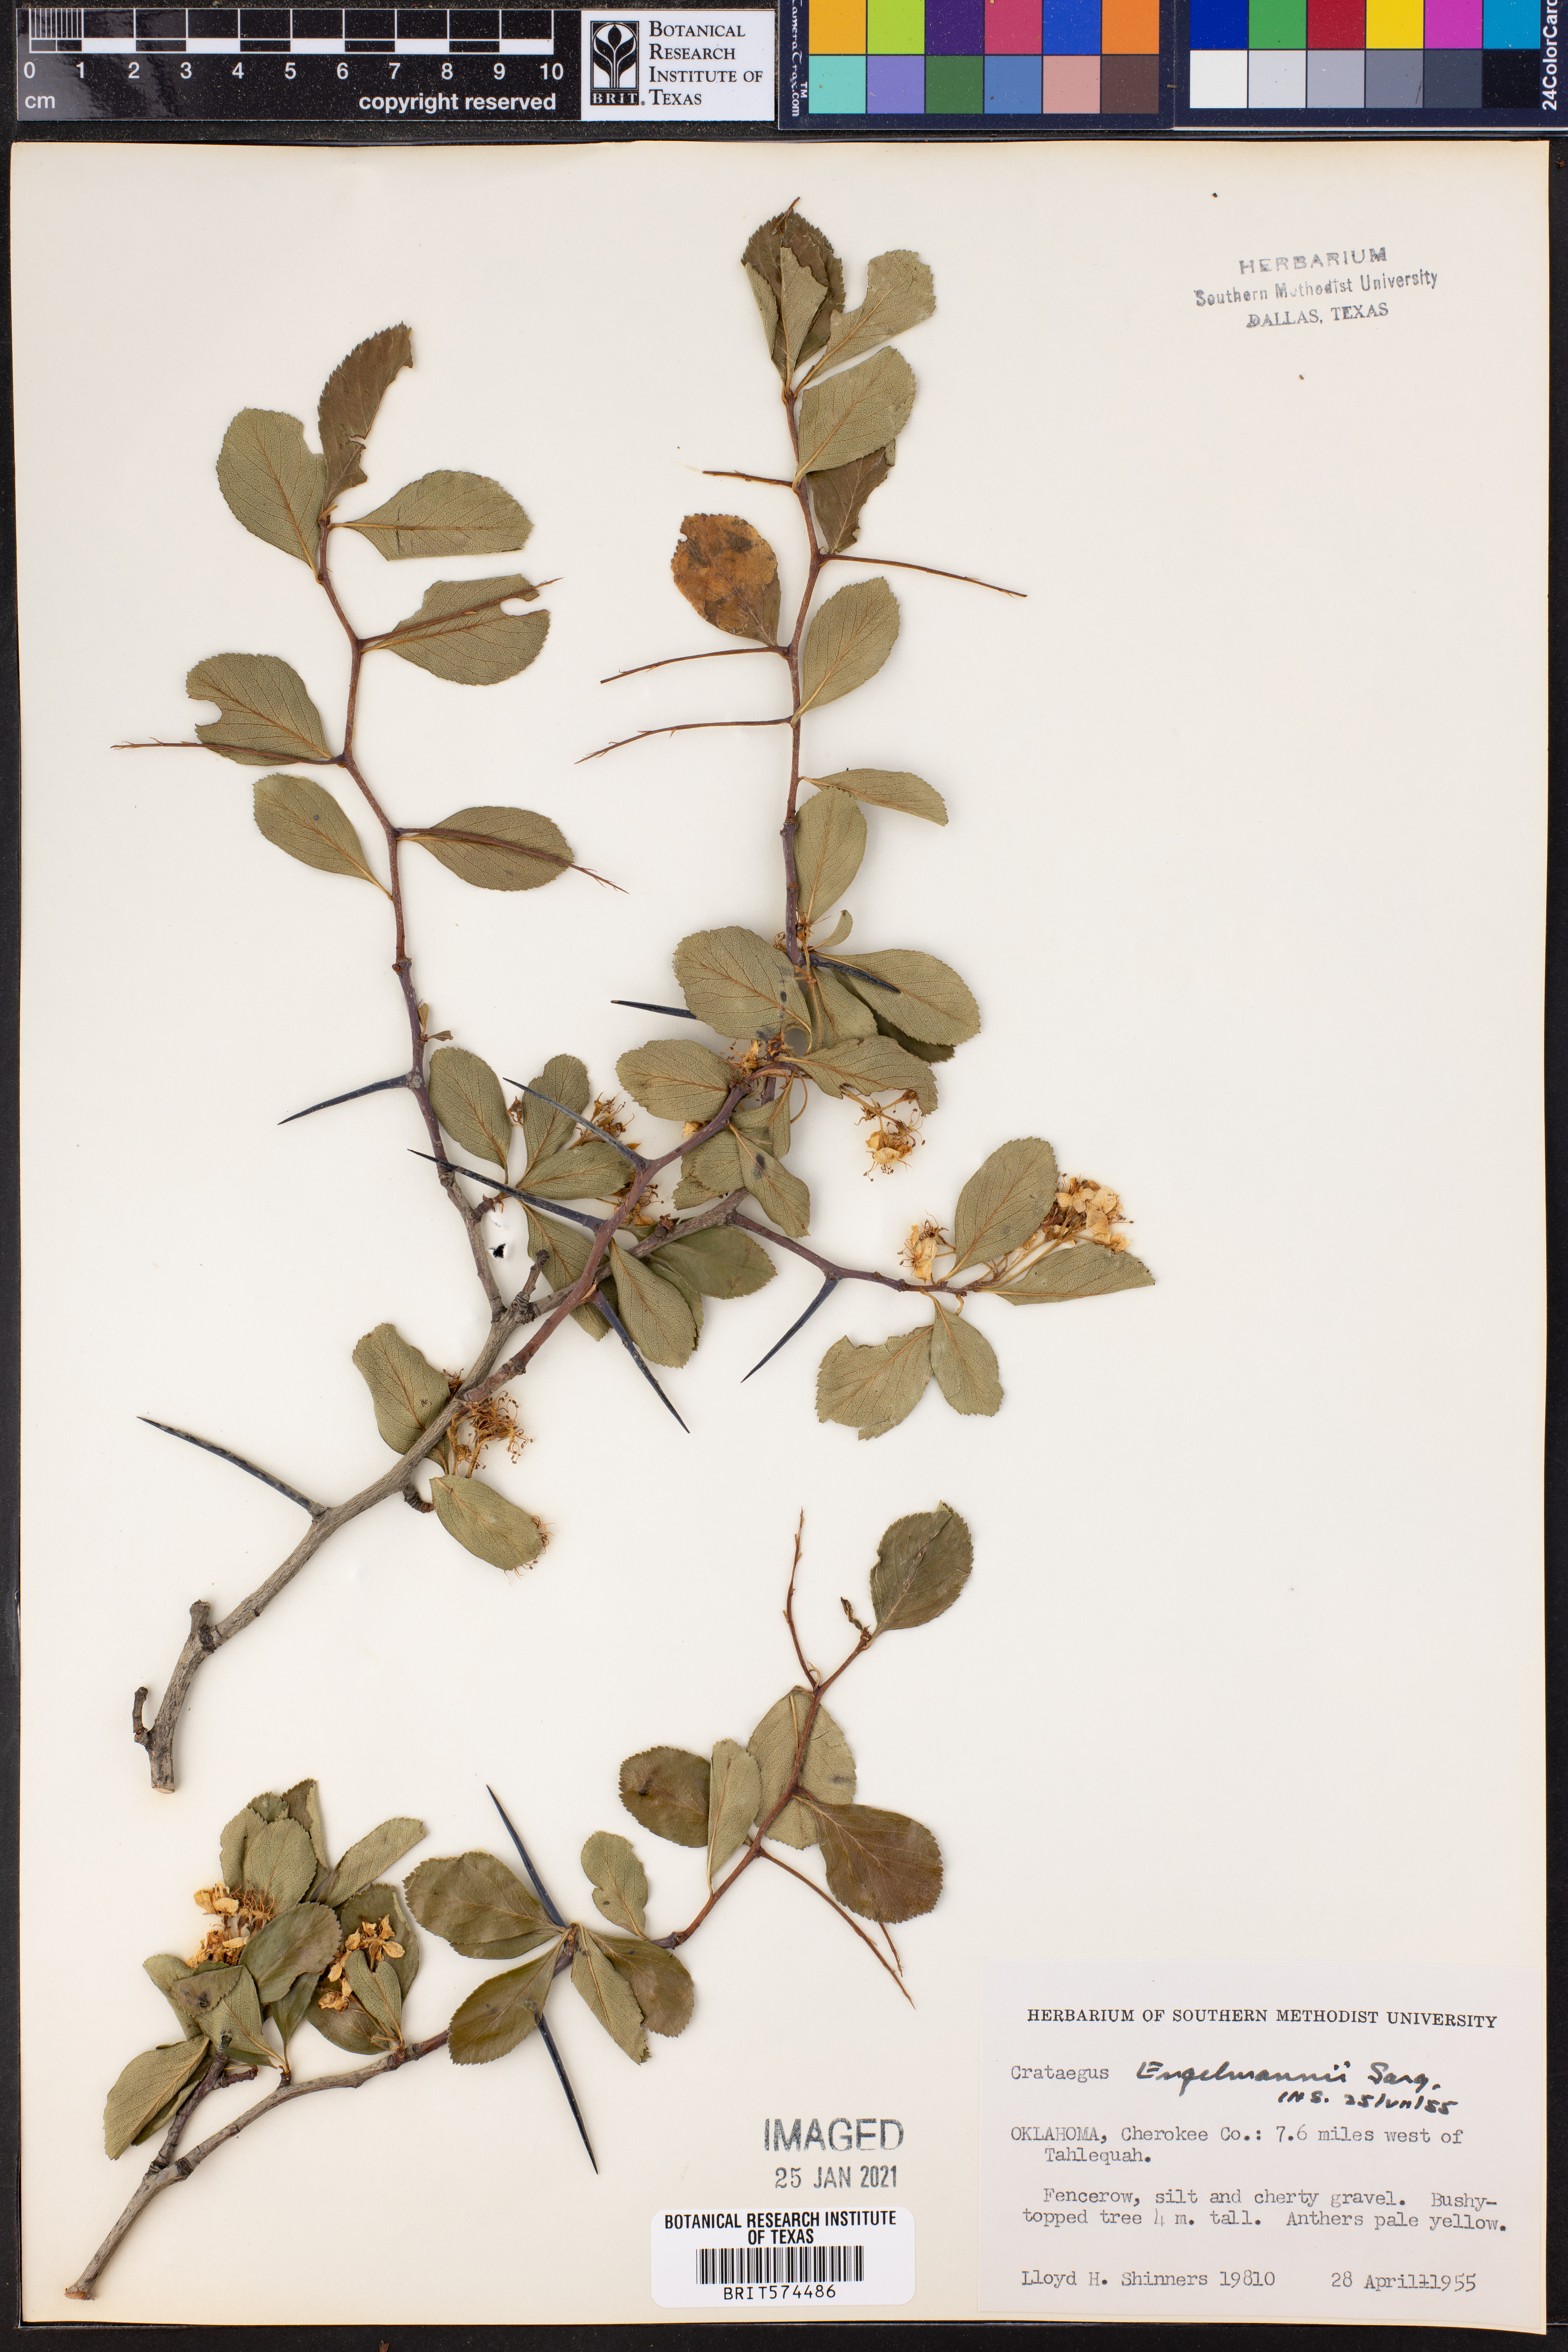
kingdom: Plantae
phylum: Tracheophyta
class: Magnoliopsida
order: Rosales
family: Rosaceae
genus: Crataegus
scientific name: Crataegus berberifolia
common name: Barberry hawthorn
